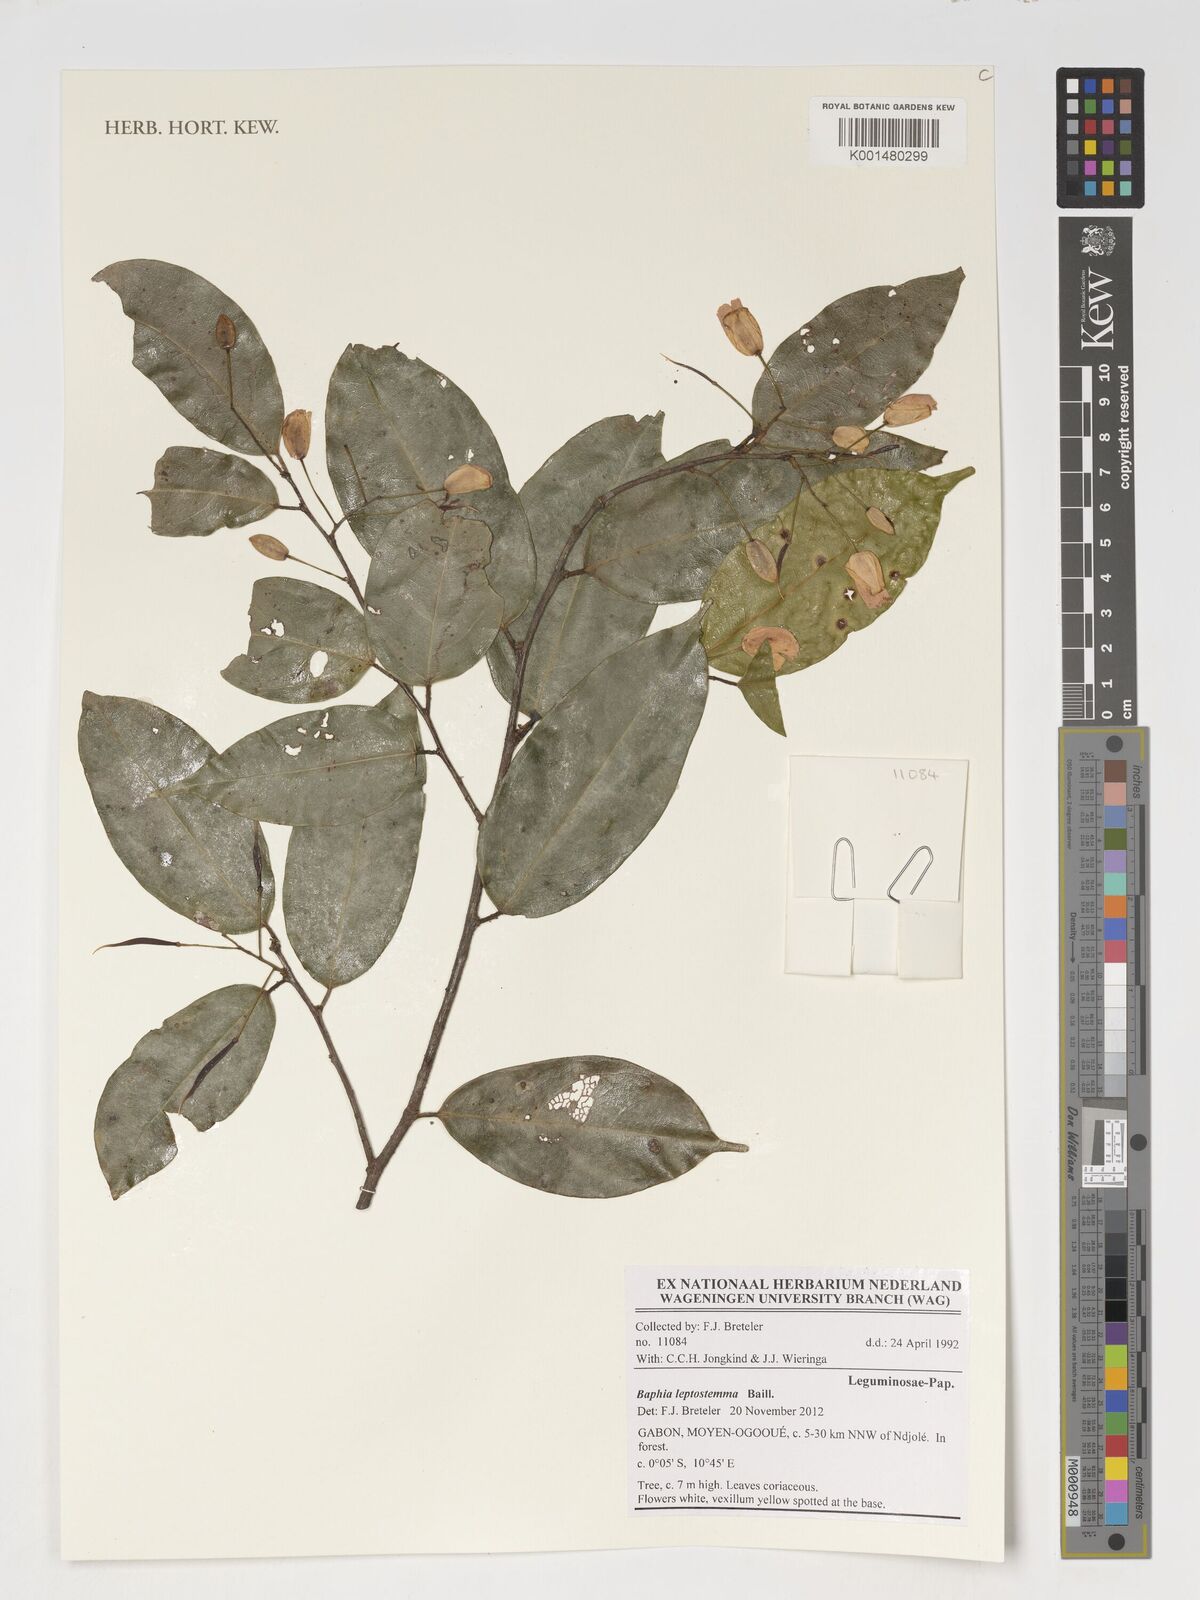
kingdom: Plantae
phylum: Tracheophyta
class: Magnoliopsida
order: Fabales
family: Fabaceae
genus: Baphia
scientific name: Baphia leptostemma
